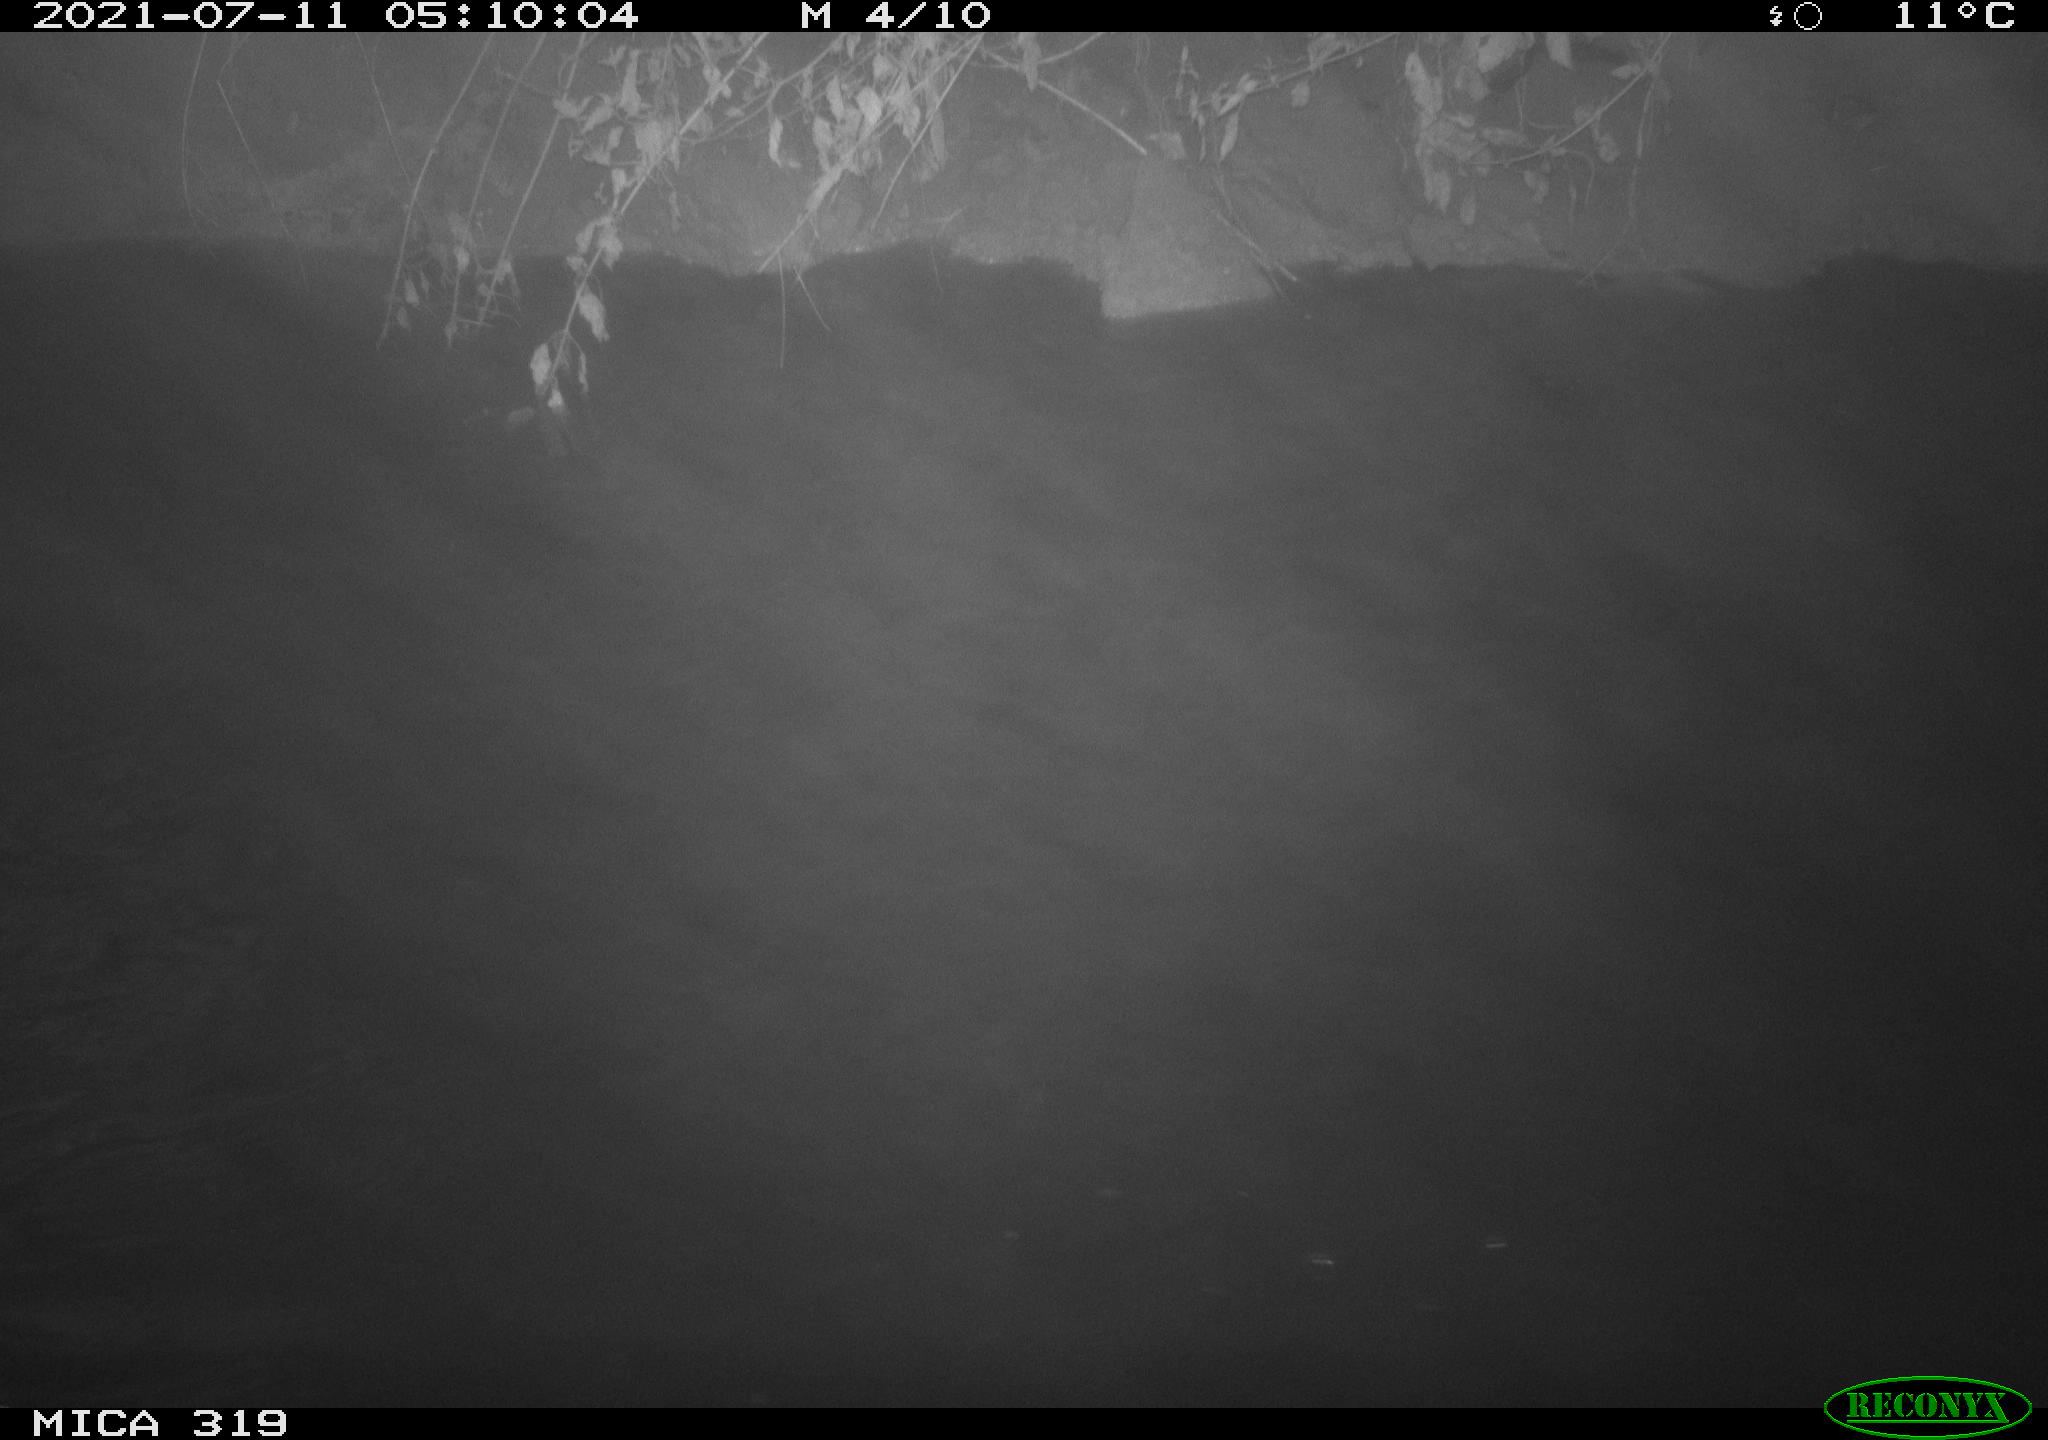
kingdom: Animalia
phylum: Chordata
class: Aves
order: Anseriformes
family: Anatidae
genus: Anas
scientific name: Anas platyrhynchos
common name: Mallard
